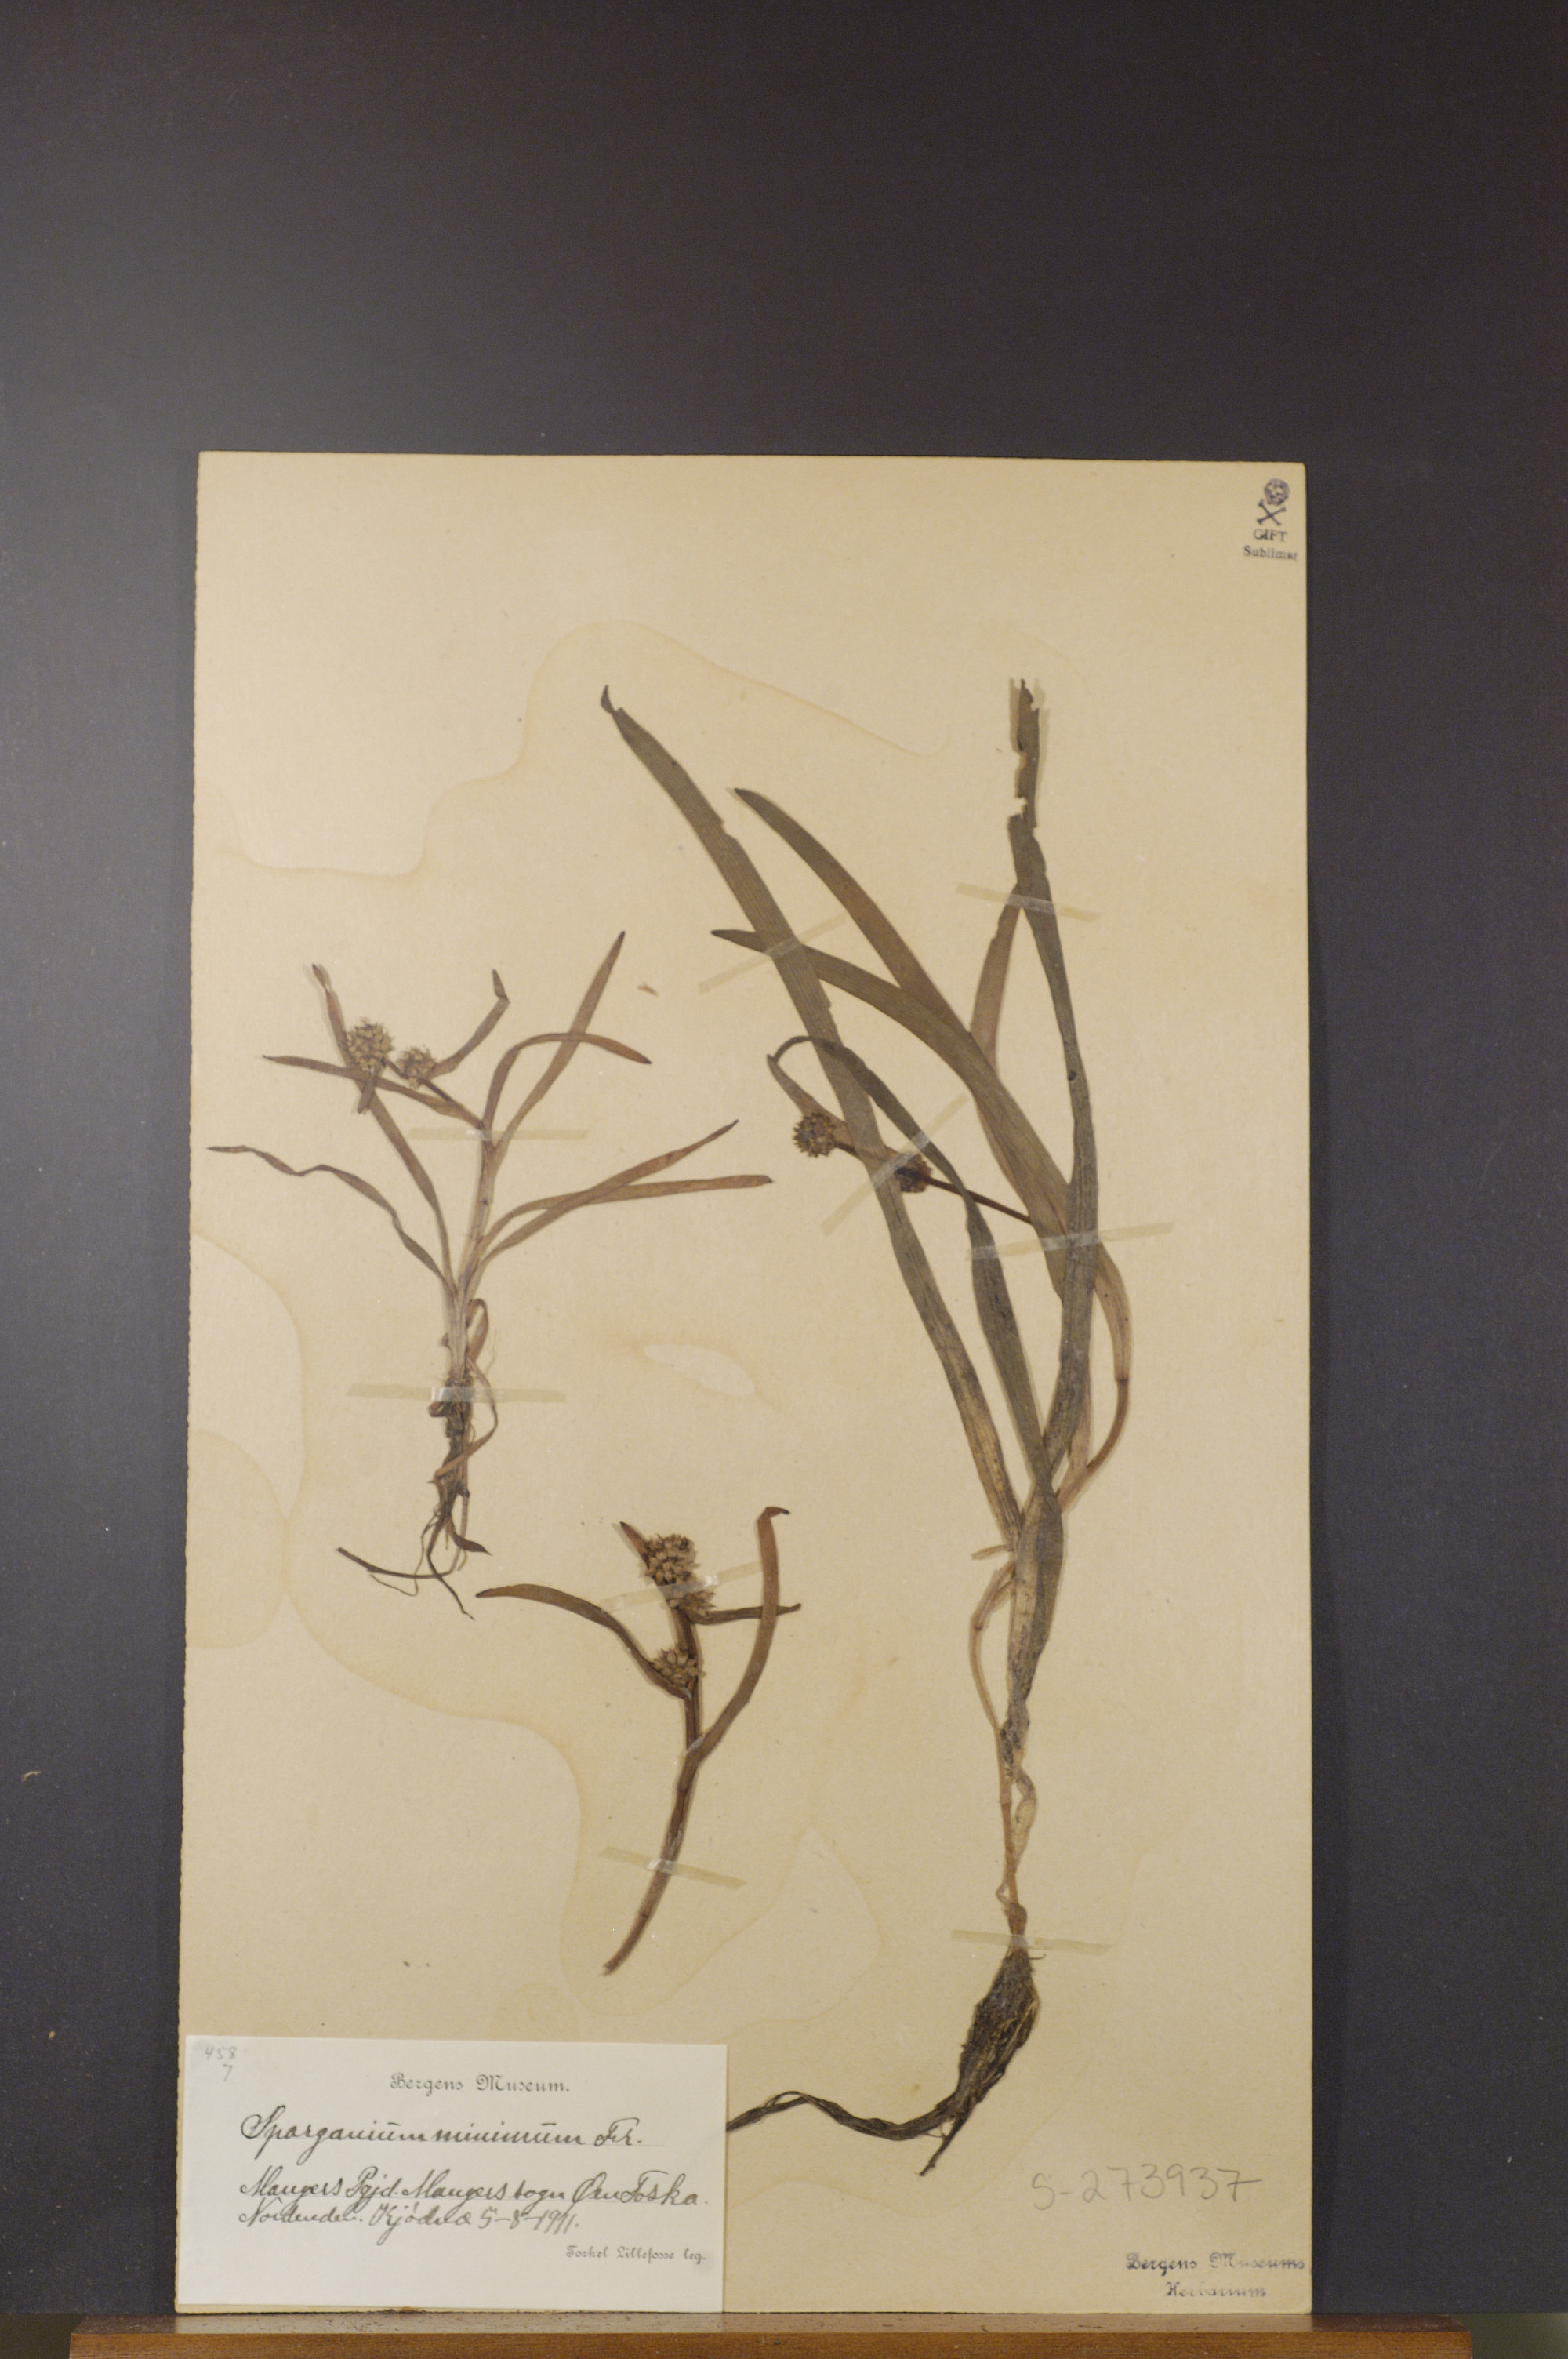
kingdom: Plantae
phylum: Tracheophyta
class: Liliopsida
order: Poales
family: Typhaceae
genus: Sparganium
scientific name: Sparganium natans
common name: Least bur-reed
